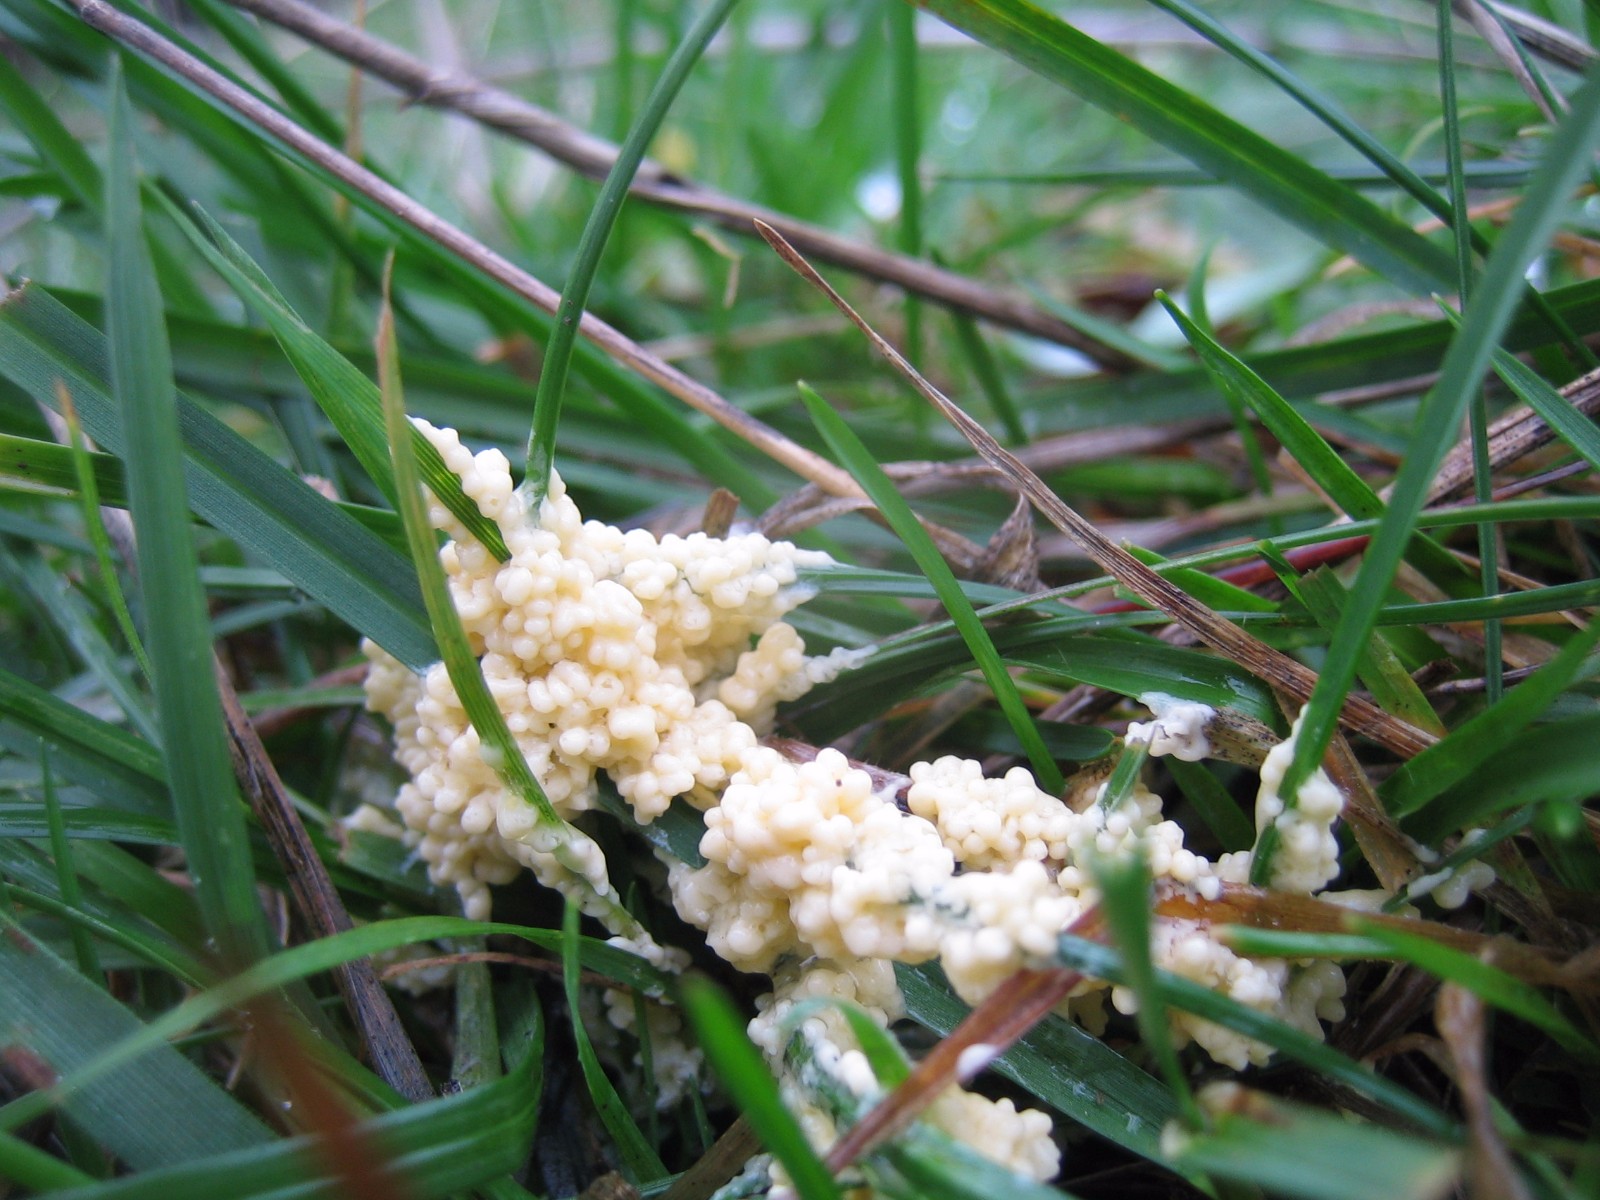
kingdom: Protozoa
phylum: Mycetozoa
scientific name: Mycetozoa
